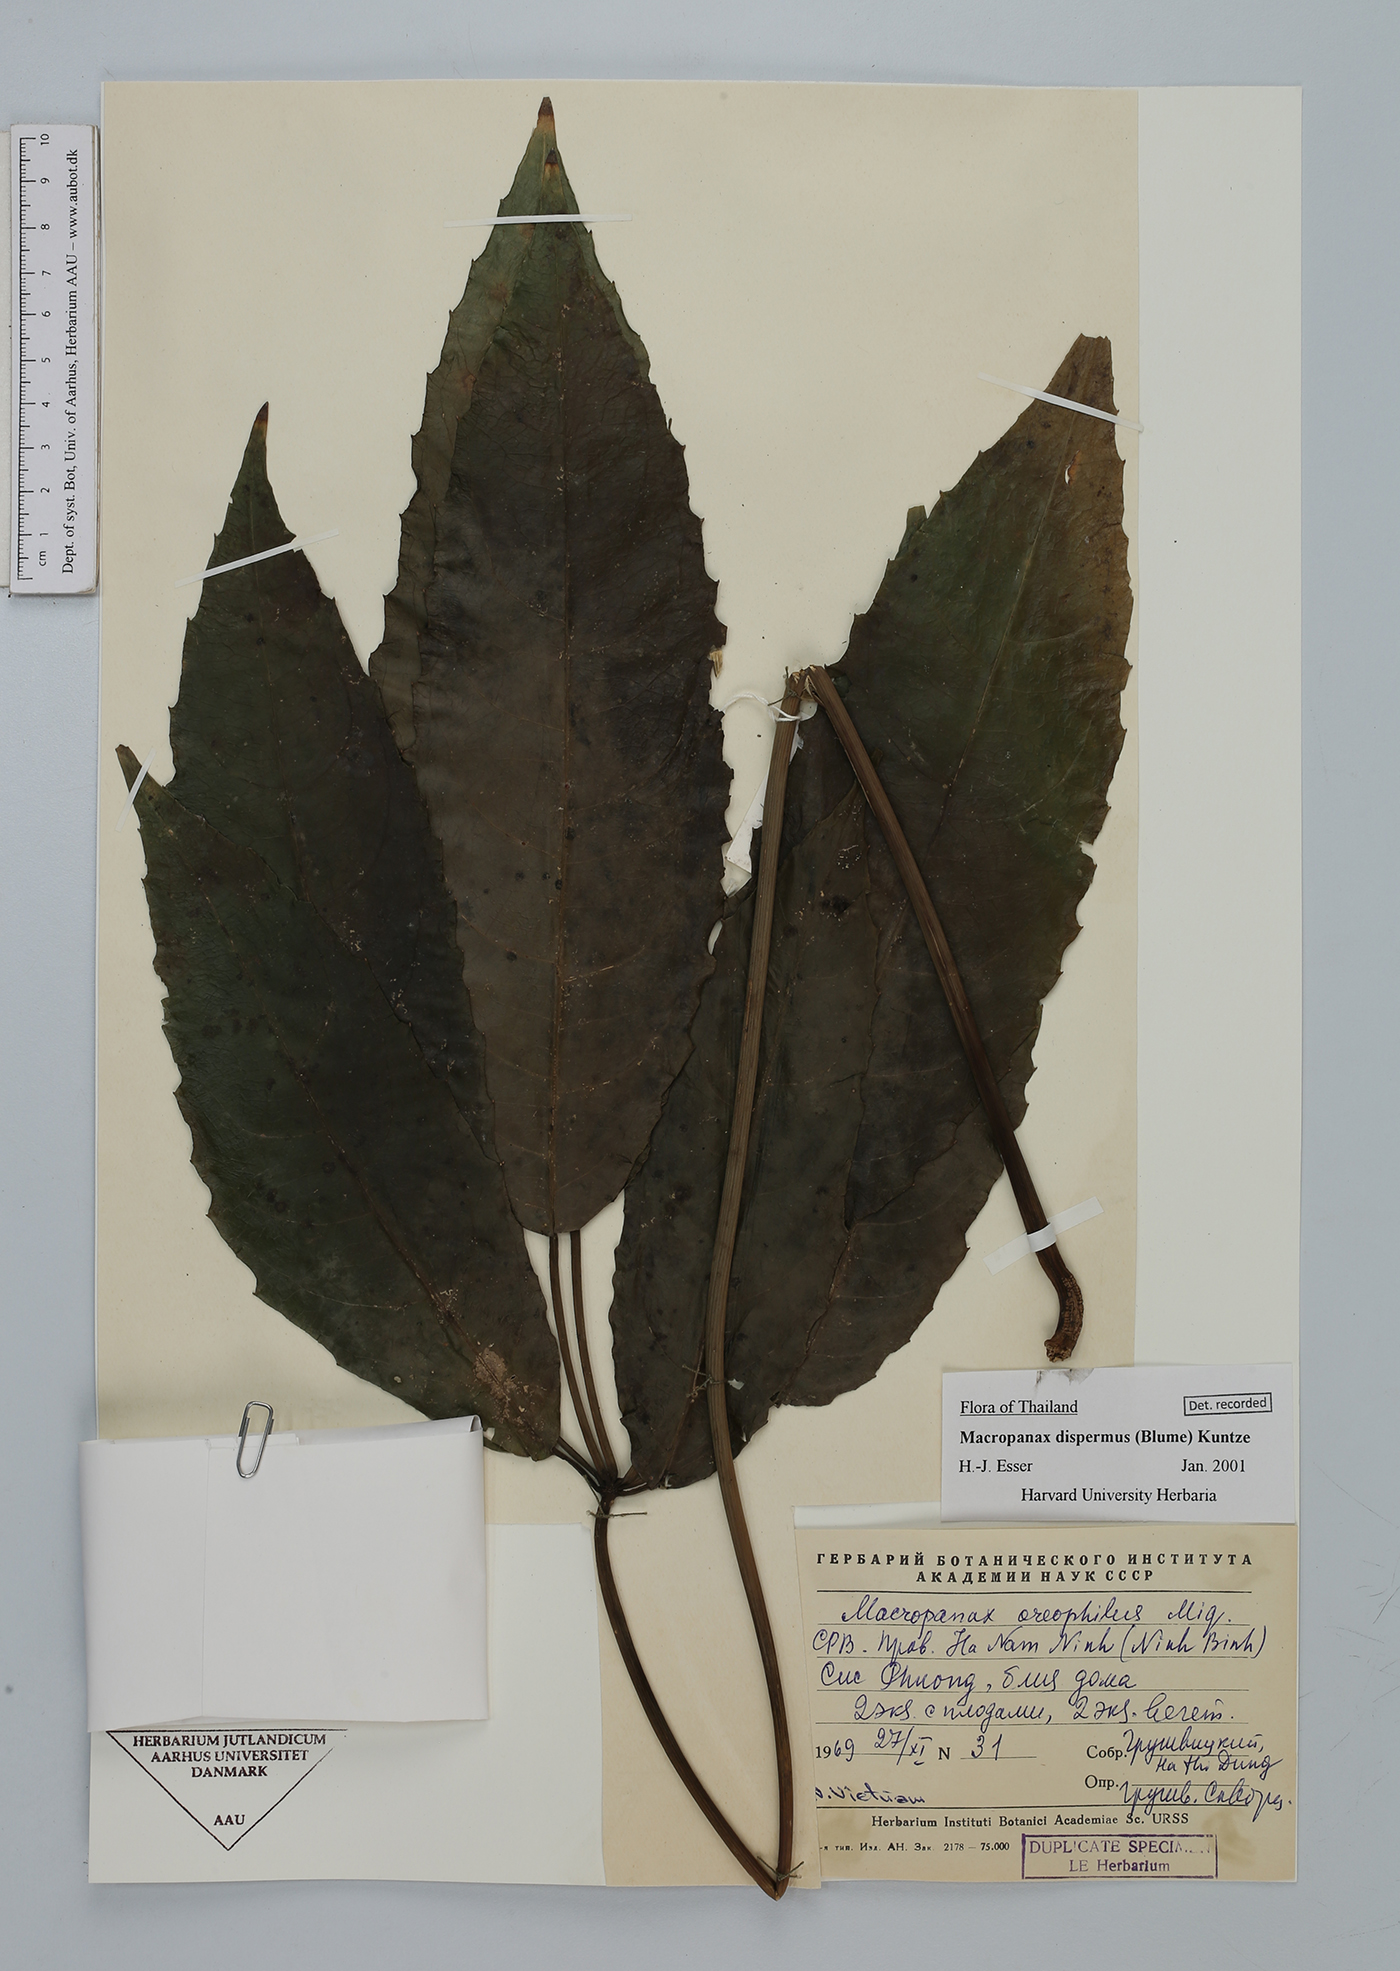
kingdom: Plantae
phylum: Tracheophyta
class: Magnoliopsida
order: Apiales
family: Araliaceae
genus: Macropanax
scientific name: Macropanax dispermus
